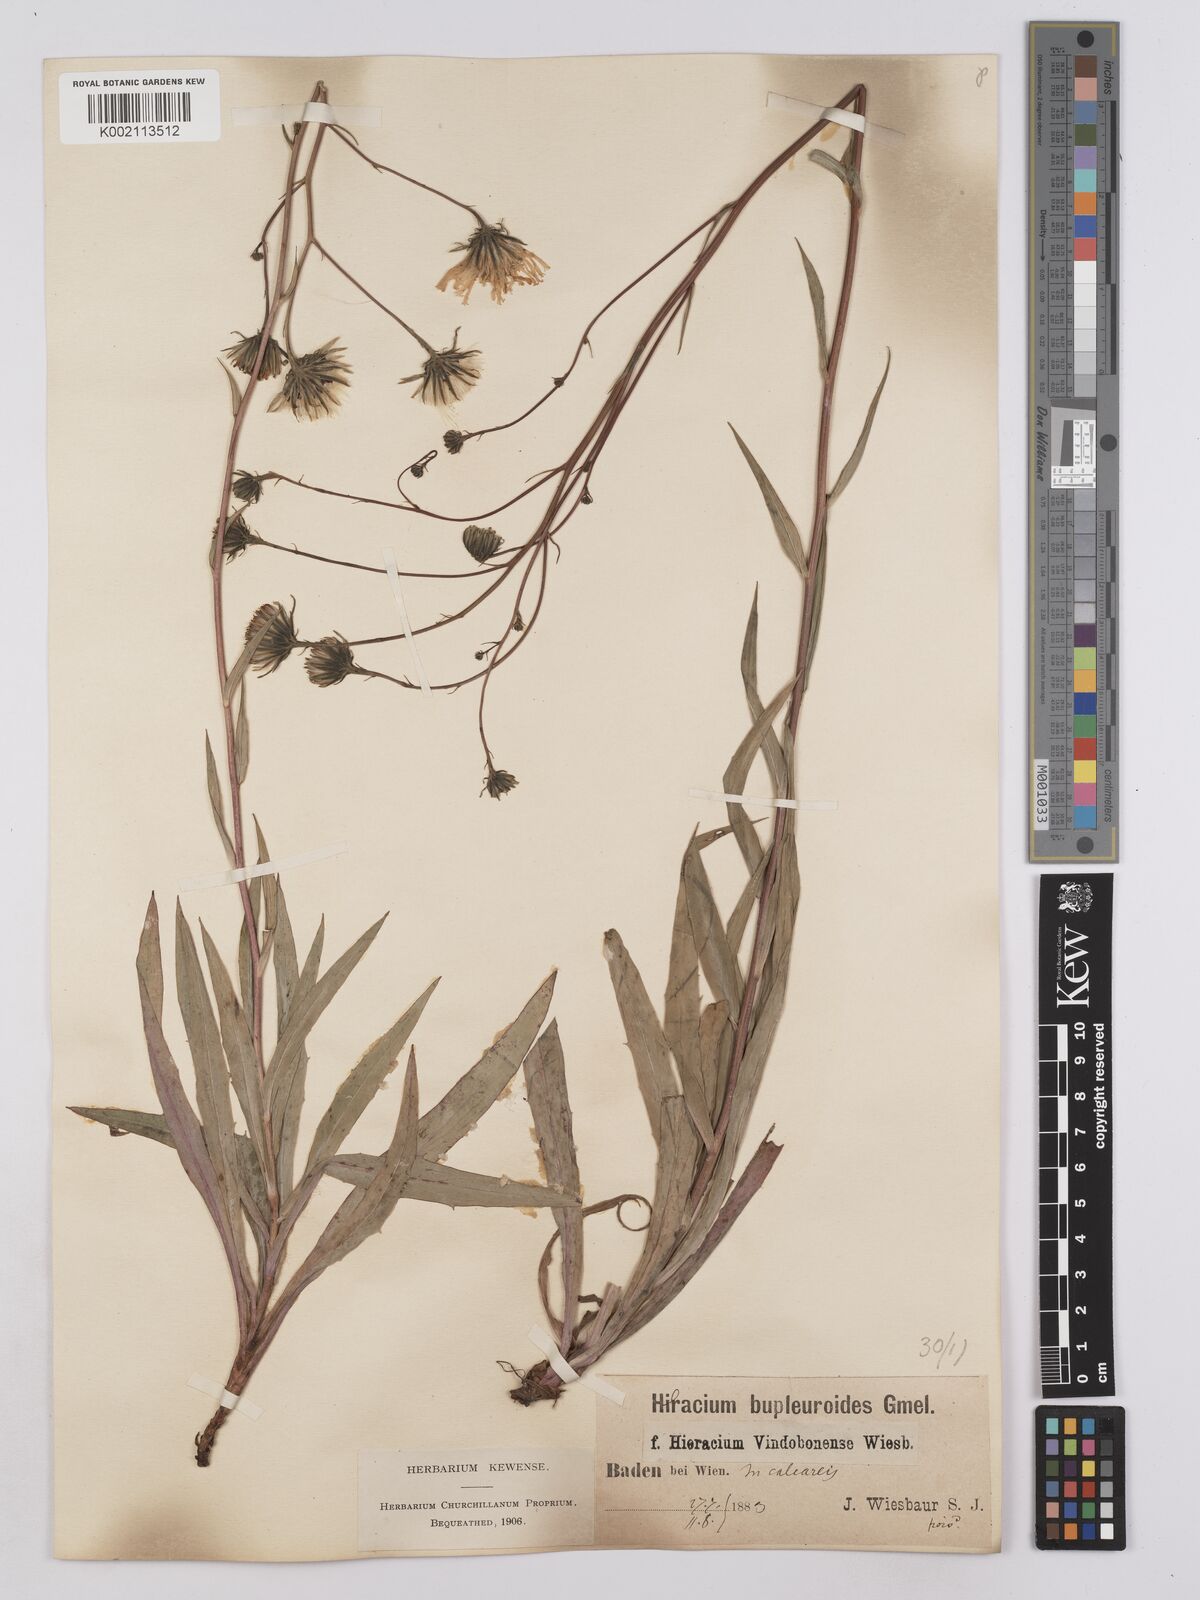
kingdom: Plantae
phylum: Tracheophyta
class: Magnoliopsida
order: Asterales
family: Asteraceae
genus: Hieracium
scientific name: Hieracium vindobonense
